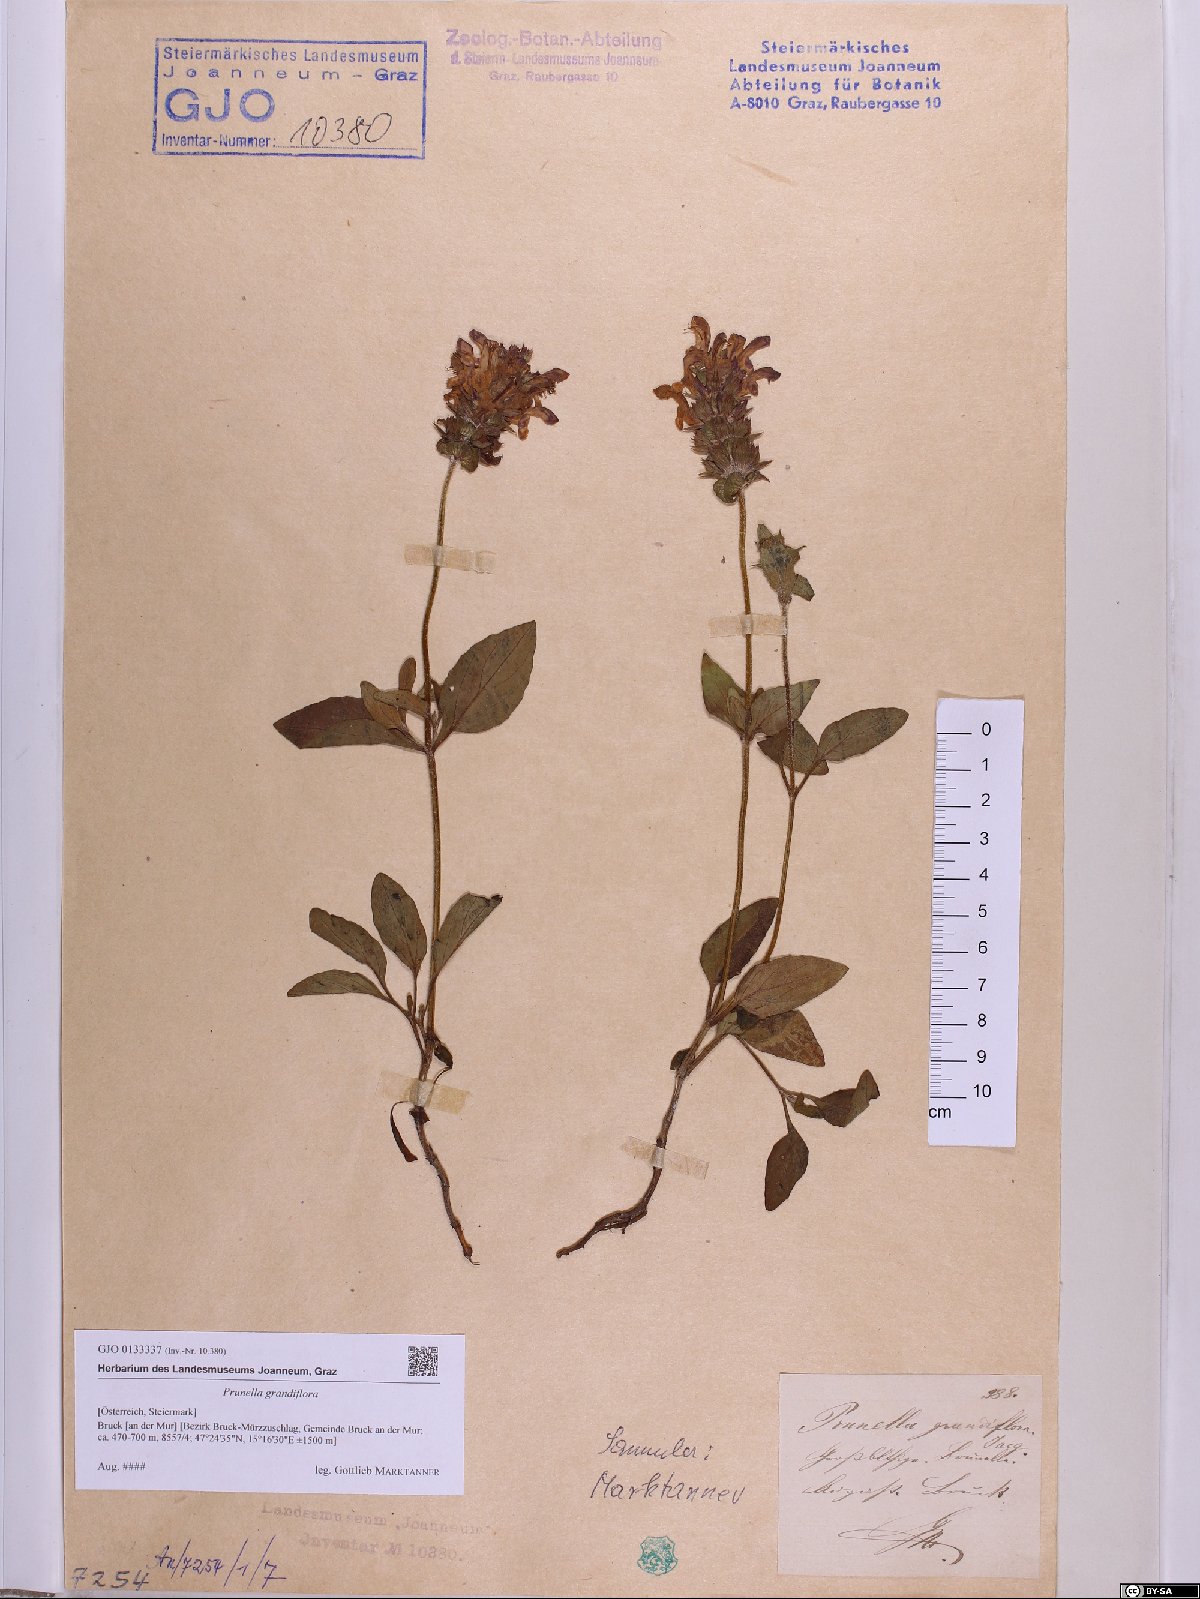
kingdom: Plantae
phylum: Tracheophyta
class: Magnoliopsida
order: Lamiales
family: Lamiaceae
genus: Prunella
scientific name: Prunella grandiflora
